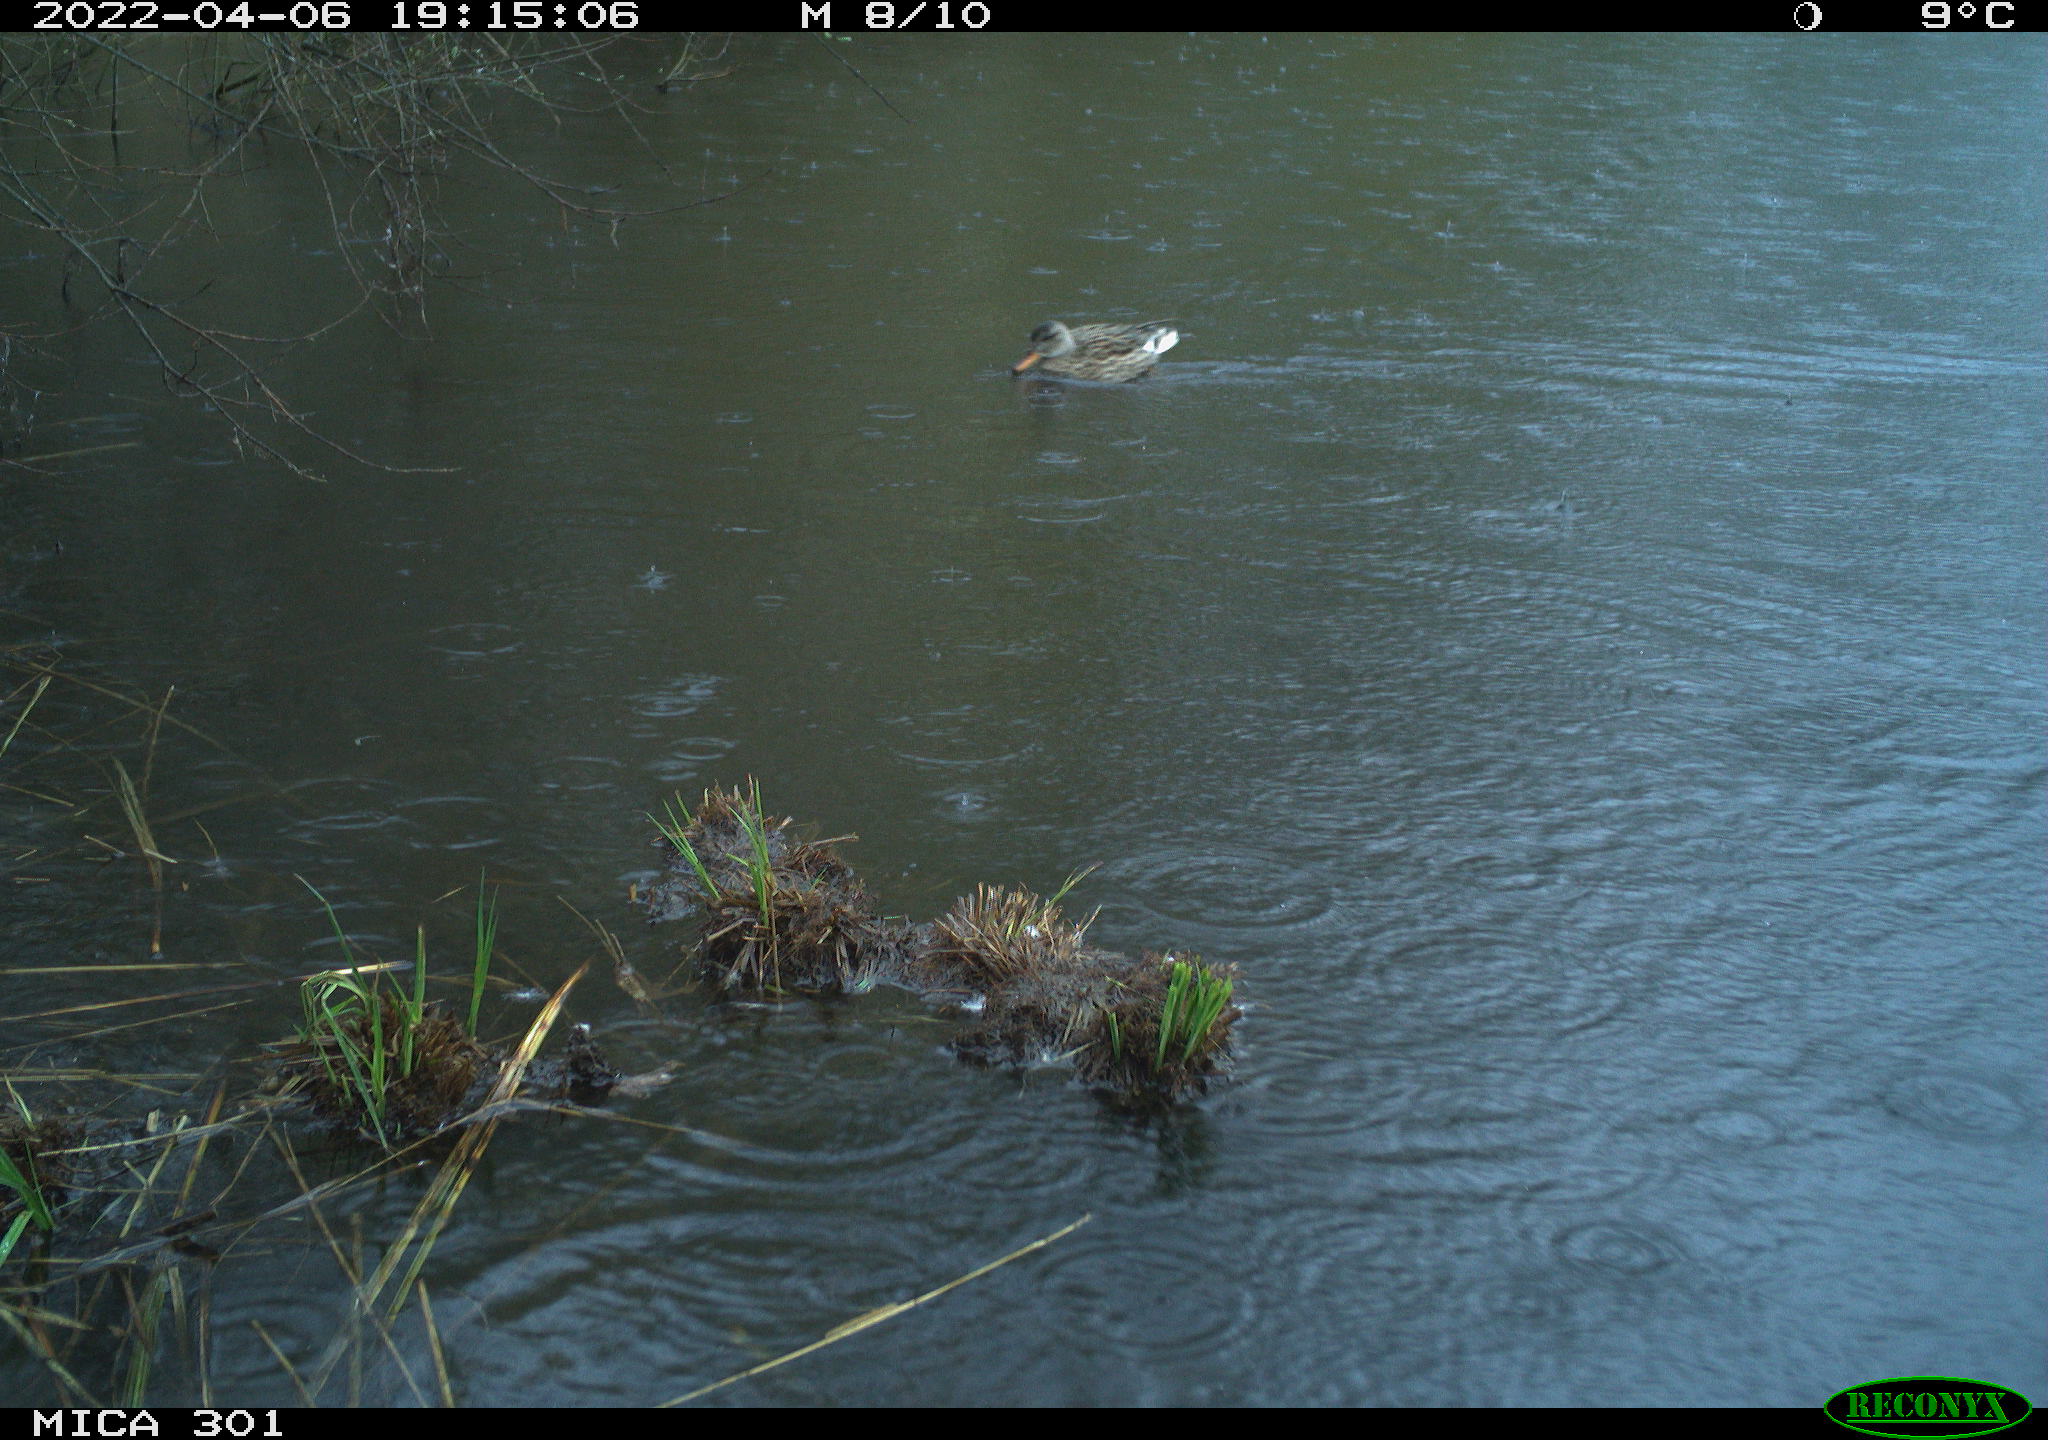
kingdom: Animalia
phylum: Chordata
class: Aves
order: Anseriformes
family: Anatidae
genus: Anas
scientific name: Anas platyrhynchos
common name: Mallard
